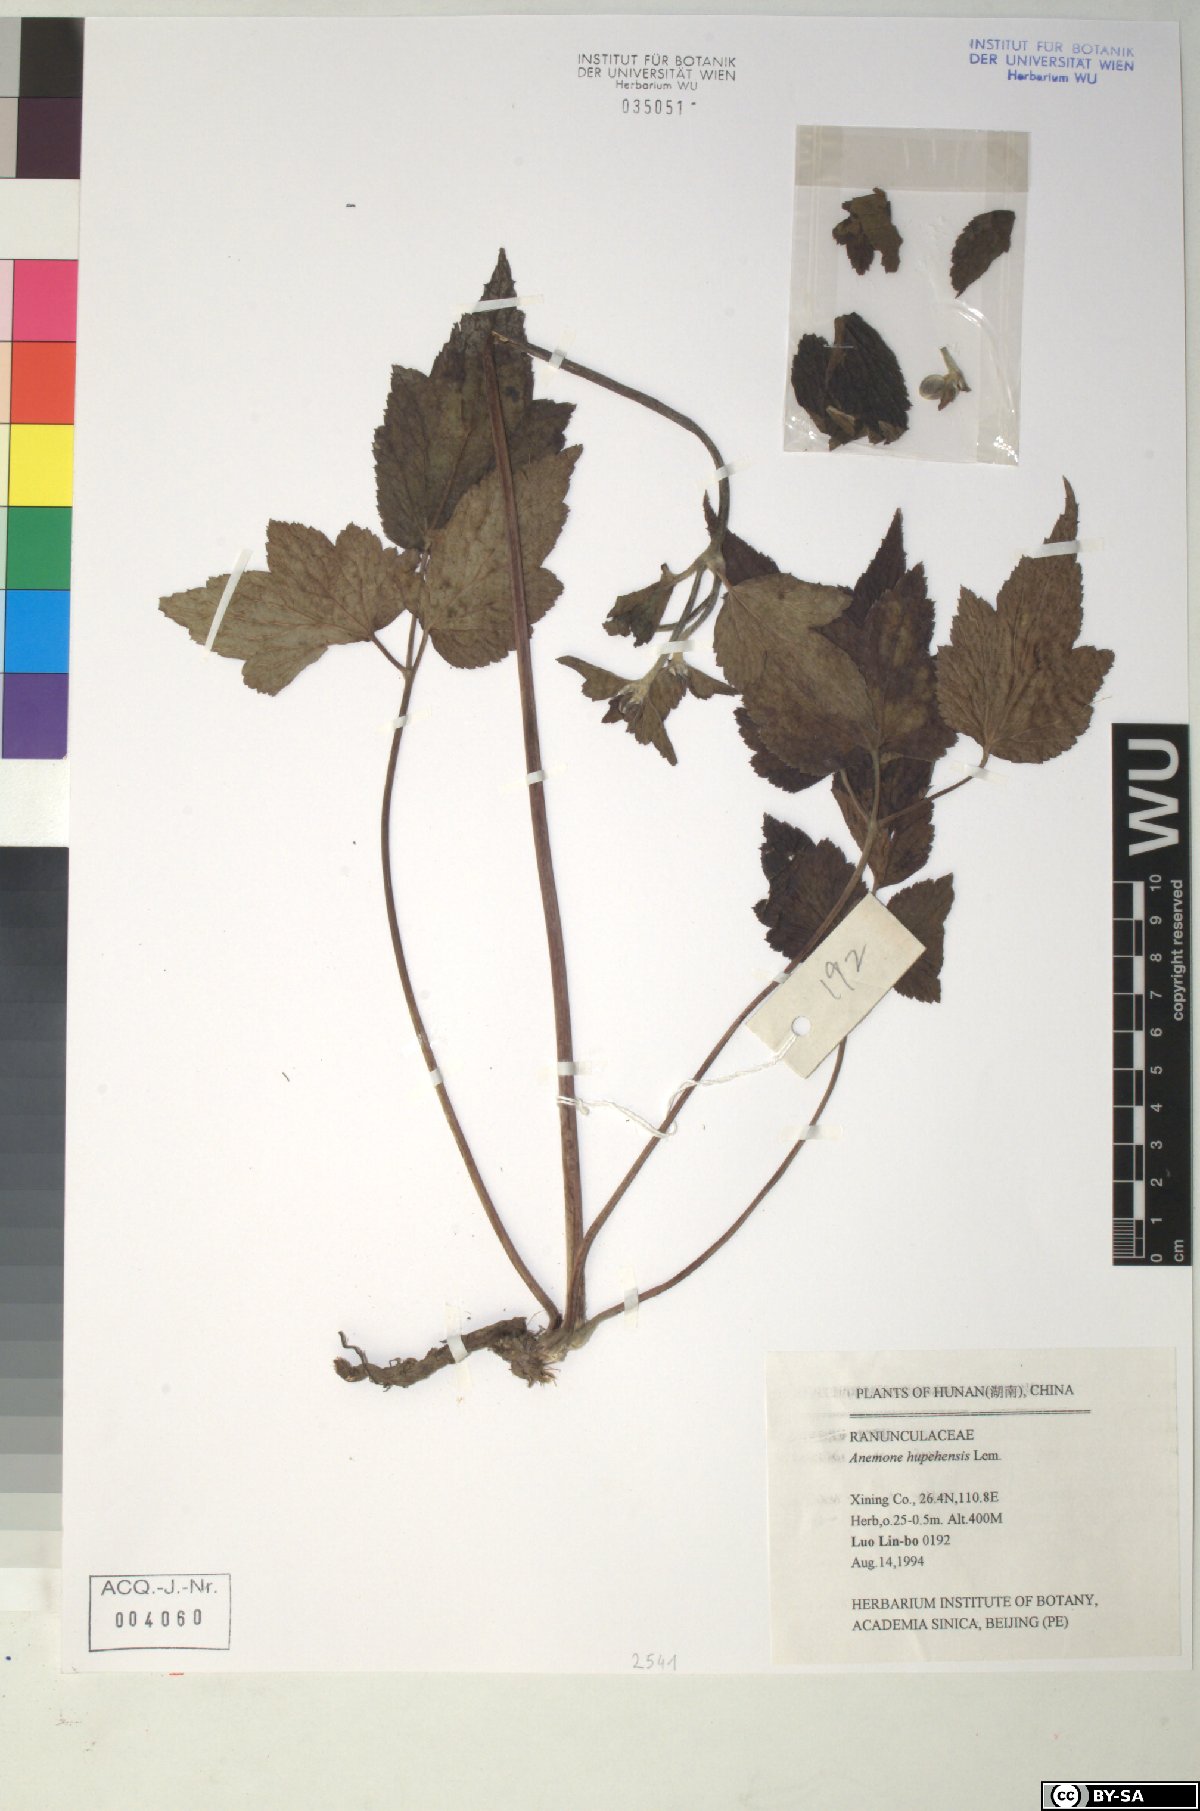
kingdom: Plantae
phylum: Tracheophyta
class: Magnoliopsida
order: Ranunculales
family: Ranunculaceae
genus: Eriocapitella
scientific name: Eriocapitella hupehensis
